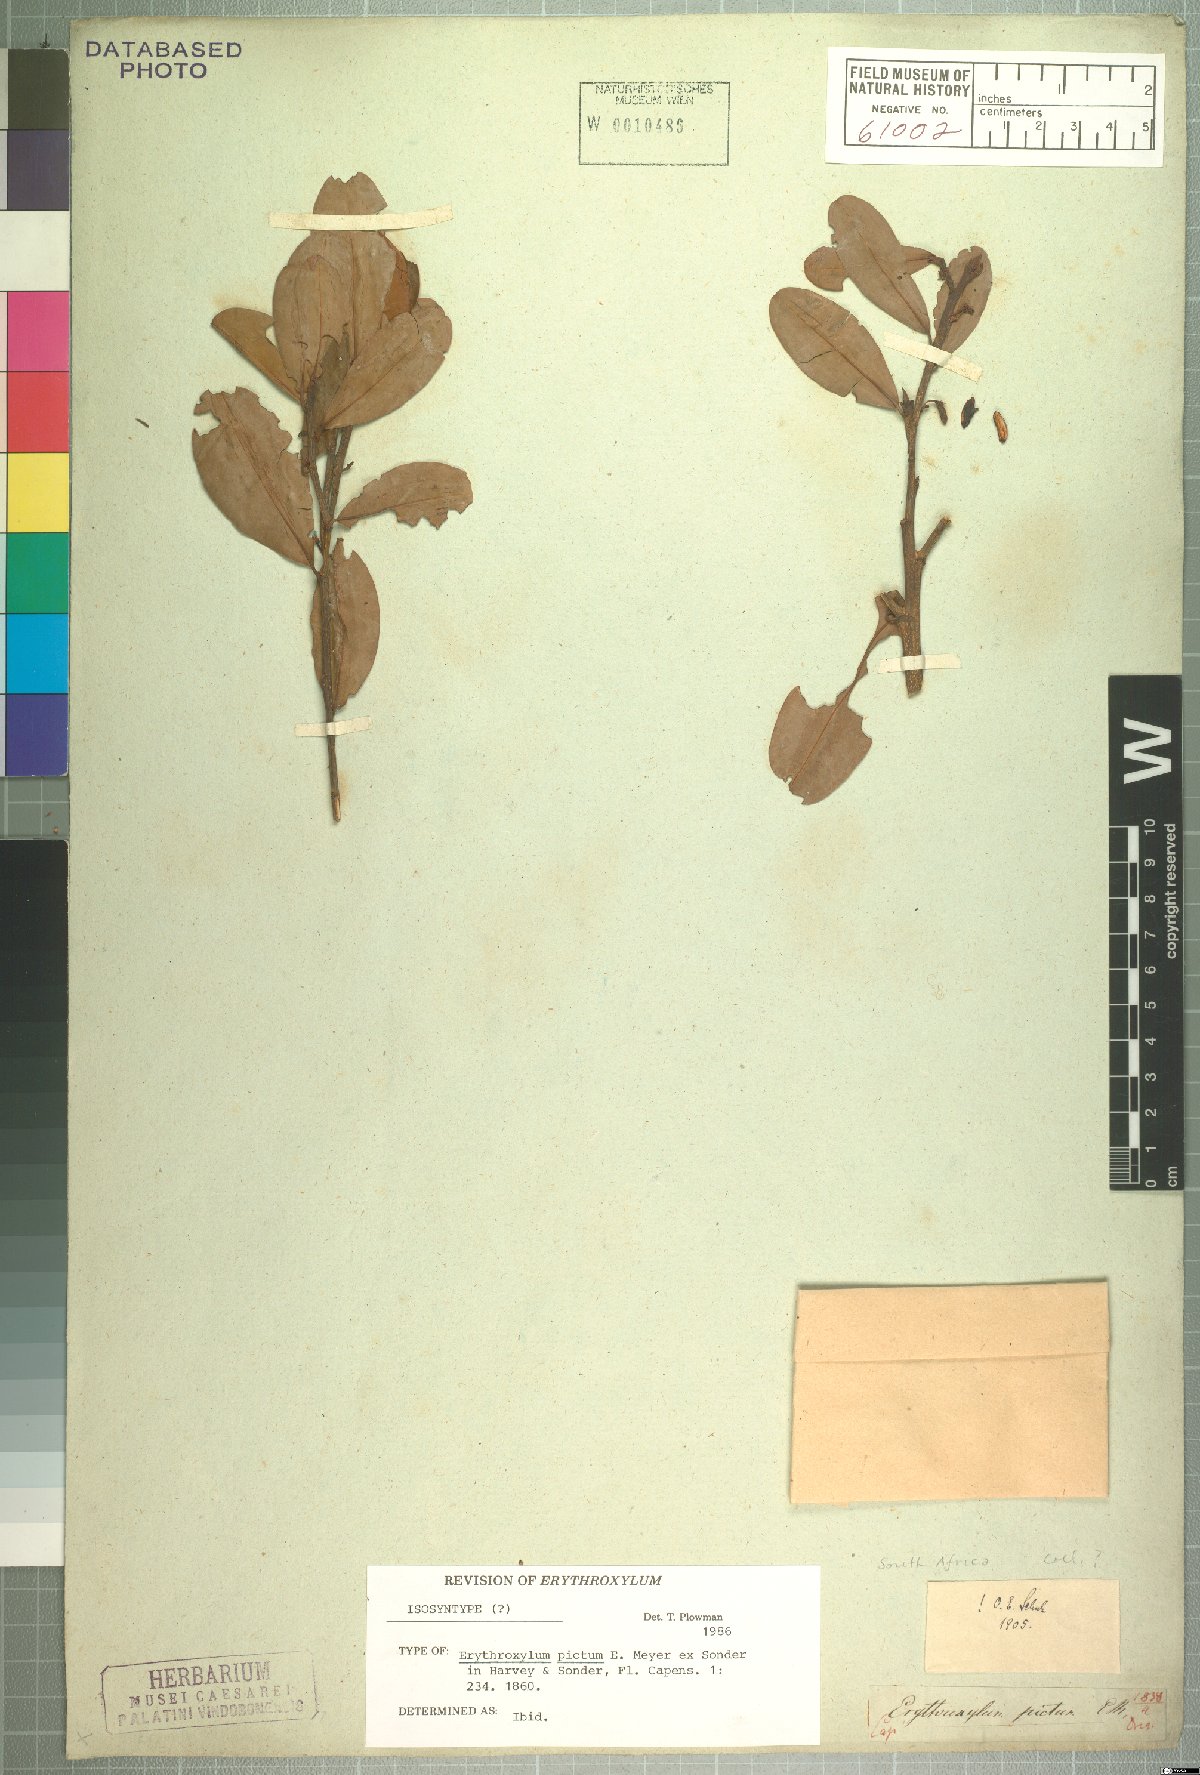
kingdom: Plantae
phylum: Tracheophyta
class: Magnoliopsida
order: Malpighiales
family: Erythroxylaceae
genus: Erythroxylum
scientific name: Erythroxylum pictum
